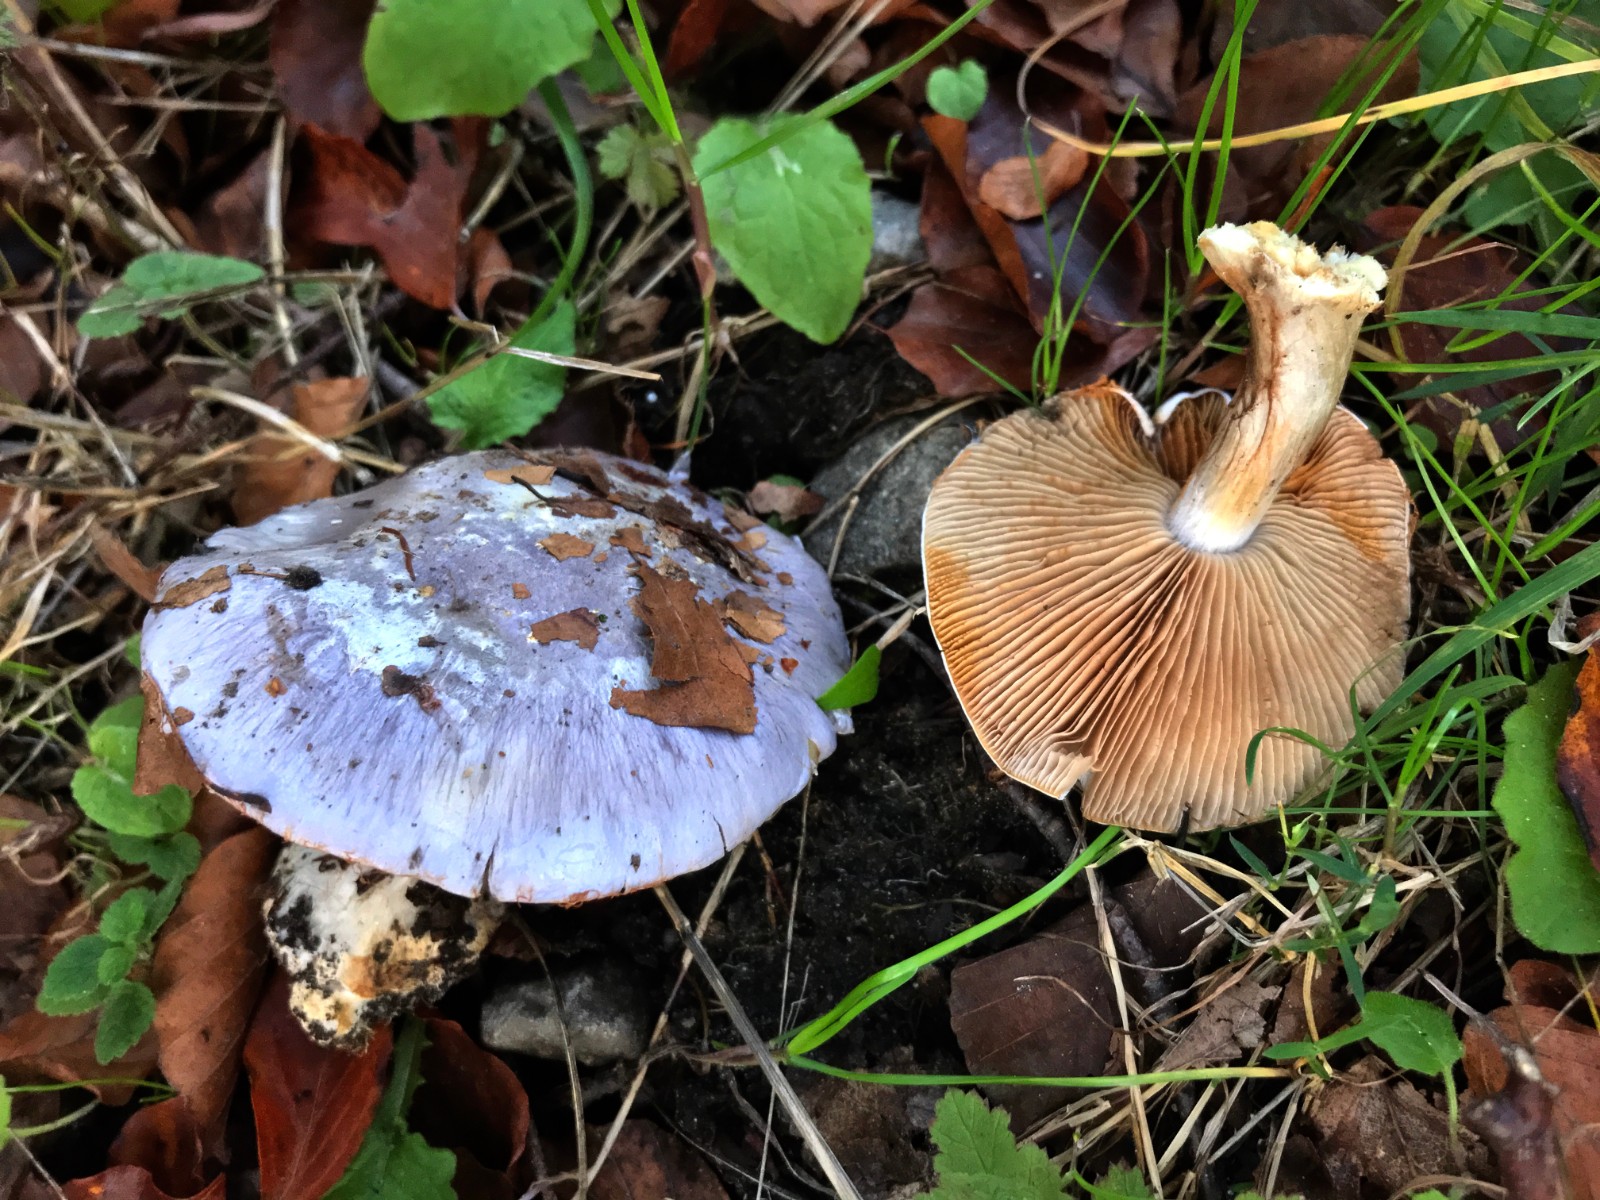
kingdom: Fungi
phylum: Basidiomycota
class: Agaricomycetes
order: Agaricales
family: Cortinariaceae
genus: Cortinarius
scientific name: Cortinarius caerulescens
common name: blåkødet slørhat
